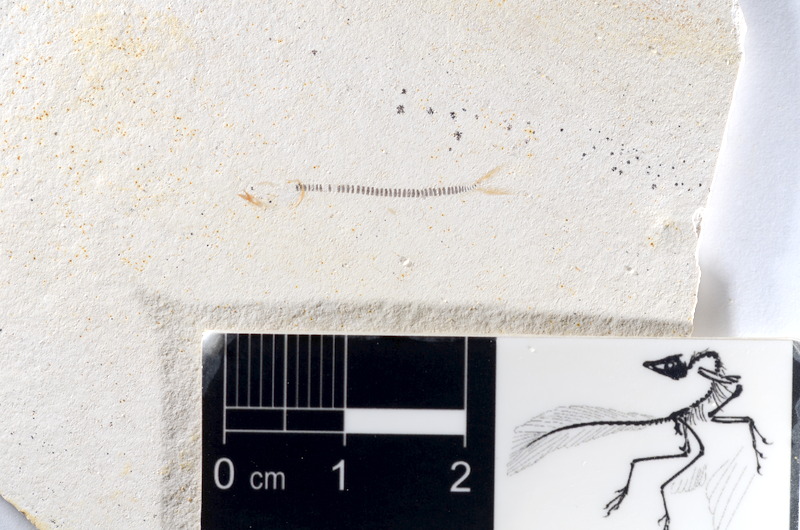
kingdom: Animalia
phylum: Chordata
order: Salmoniformes
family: Orthogonikleithridae
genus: Orthogonikleithrus
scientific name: Orthogonikleithrus hoelli
